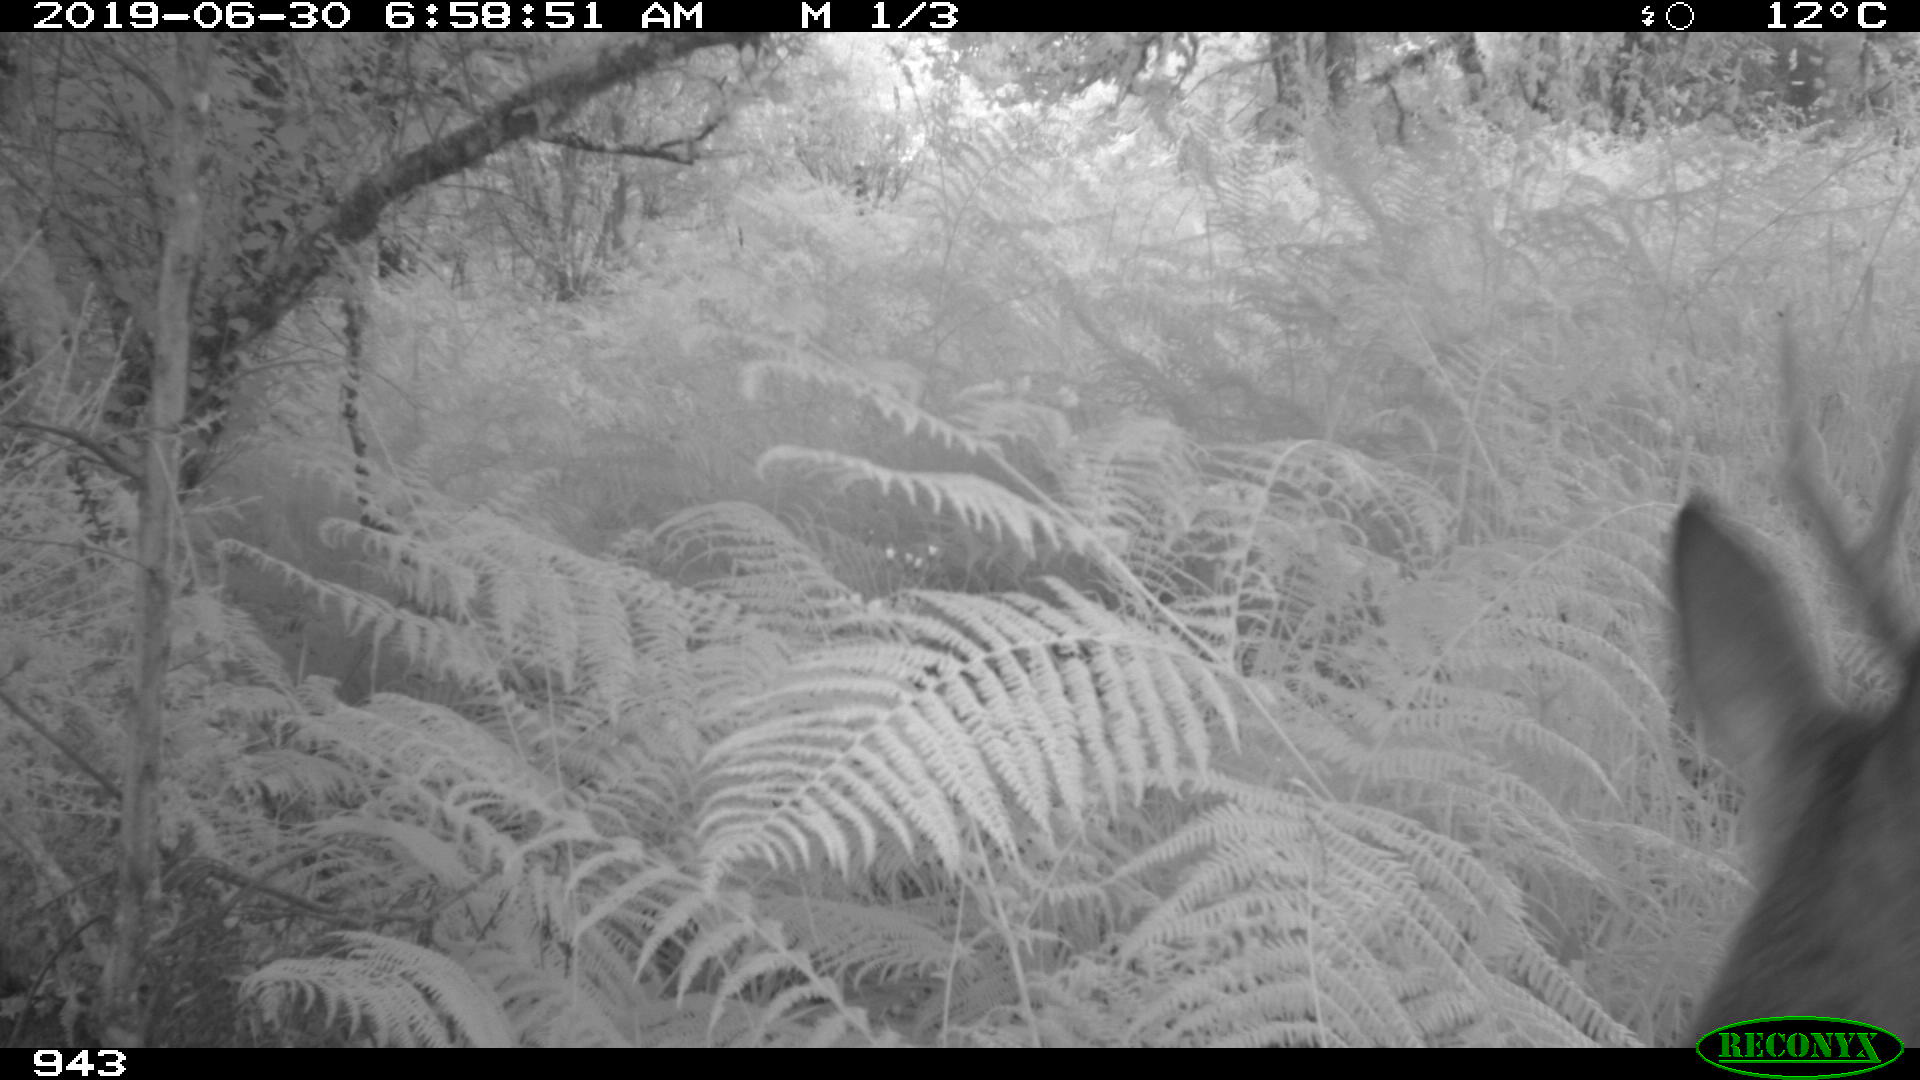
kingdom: Animalia
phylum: Chordata
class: Mammalia
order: Artiodactyla
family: Cervidae
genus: Capreolus
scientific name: Capreolus capreolus
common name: Western roe deer
